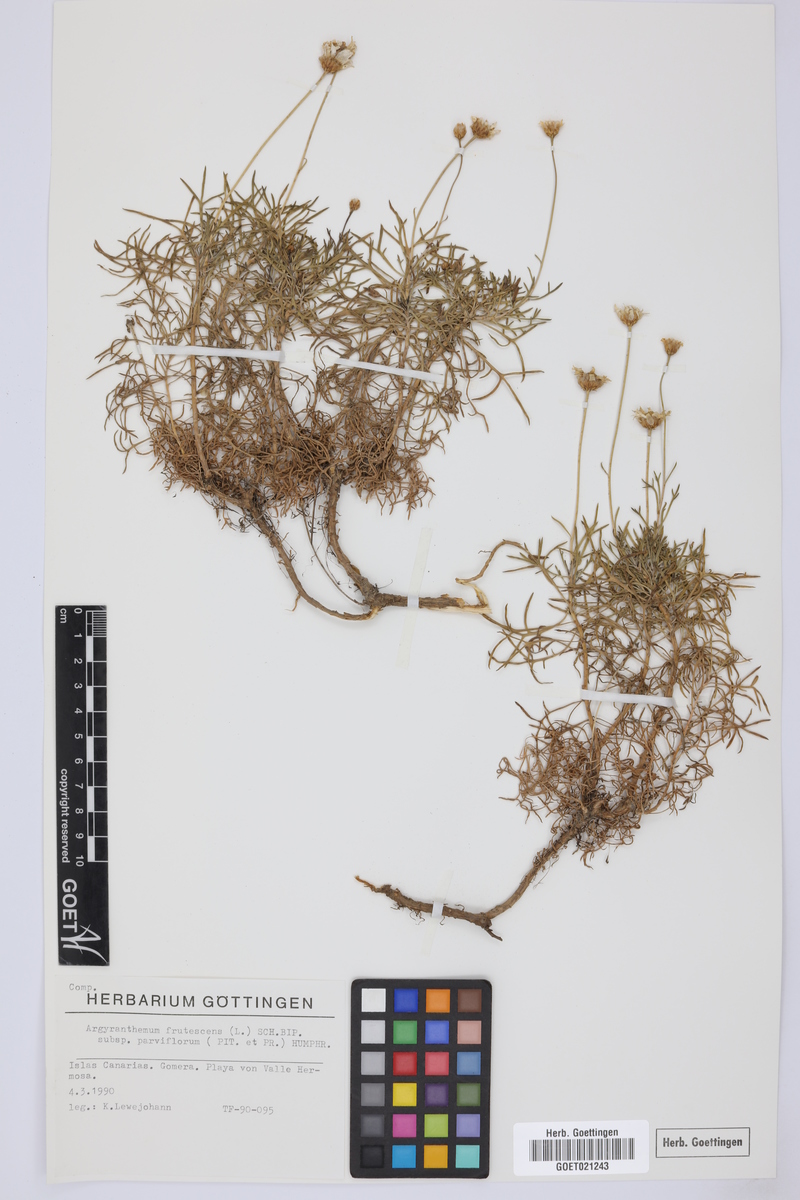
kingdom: Plantae
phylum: Tracheophyta
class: Magnoliopsida
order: Asterales
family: Asteraceae
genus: Argyranthemum
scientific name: Argyranthemum frutescens
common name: Paris daisy
